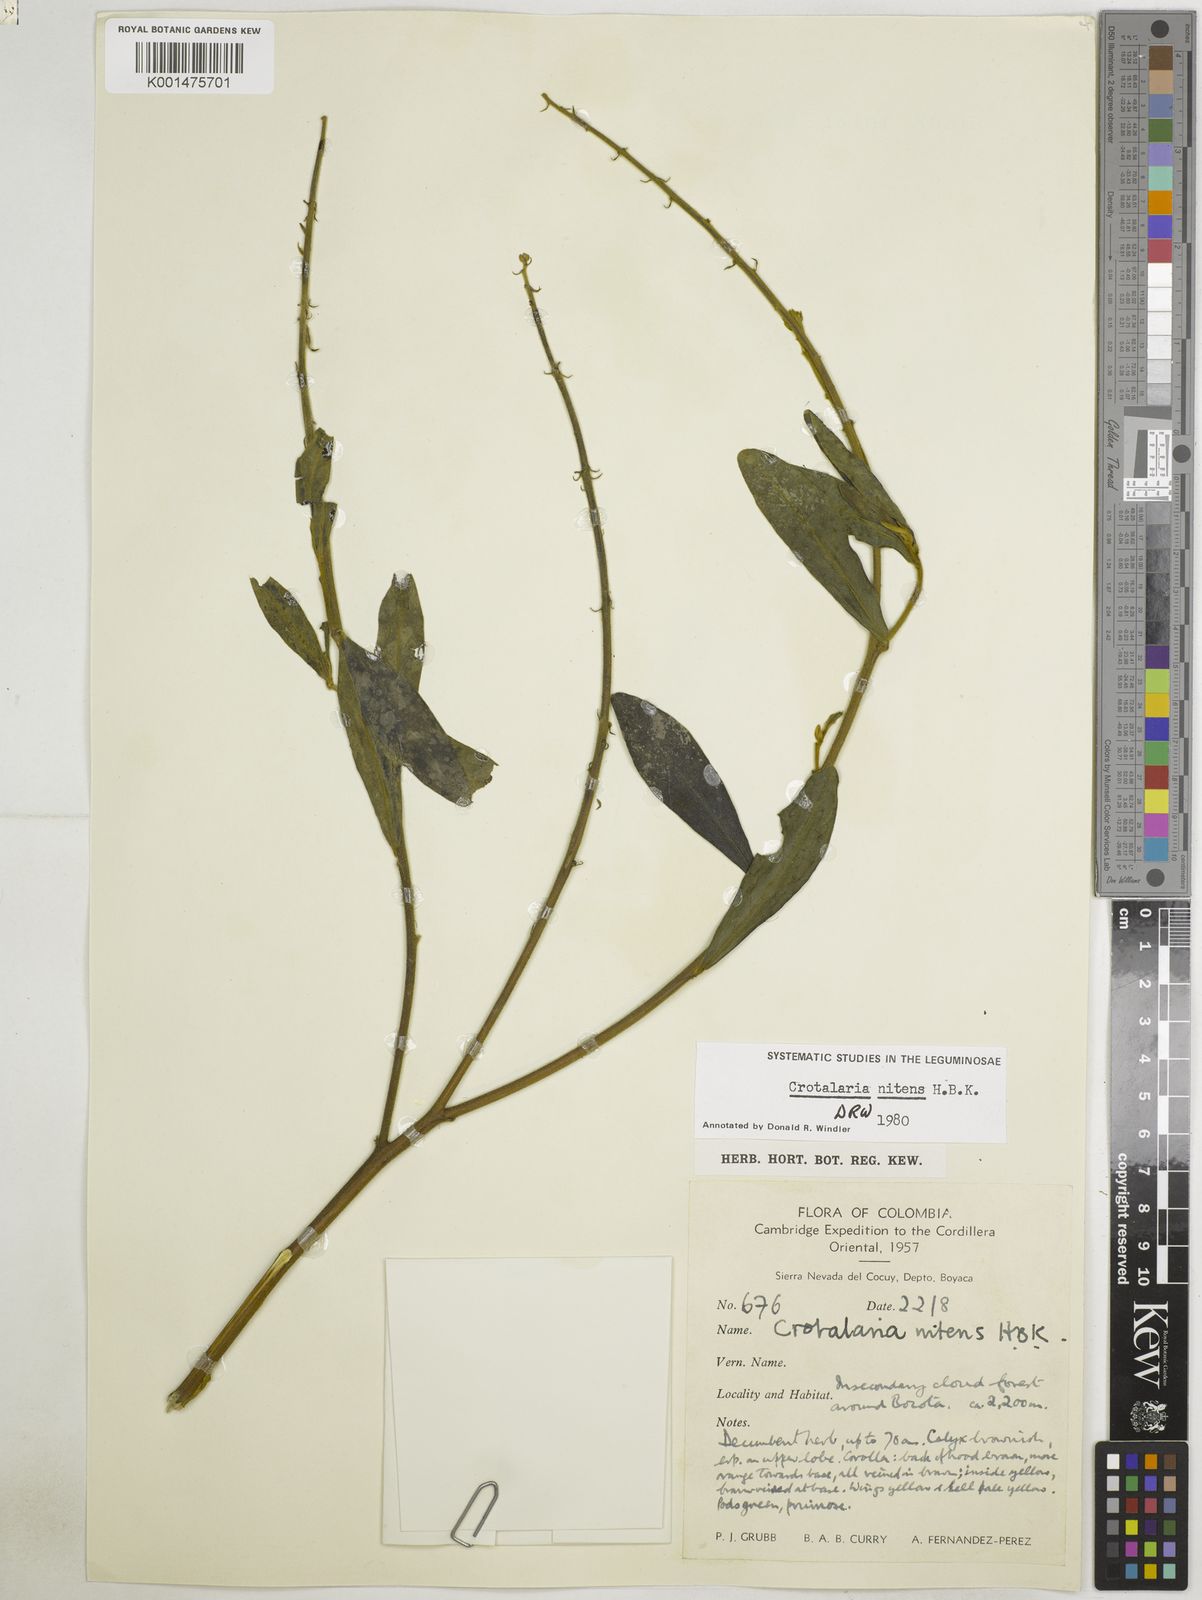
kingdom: Plantae
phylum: Tracheophyta
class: Magnoliopsida
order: Fabales
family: Fabaceae
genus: Crotalaria
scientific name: Crotalaria nitens
